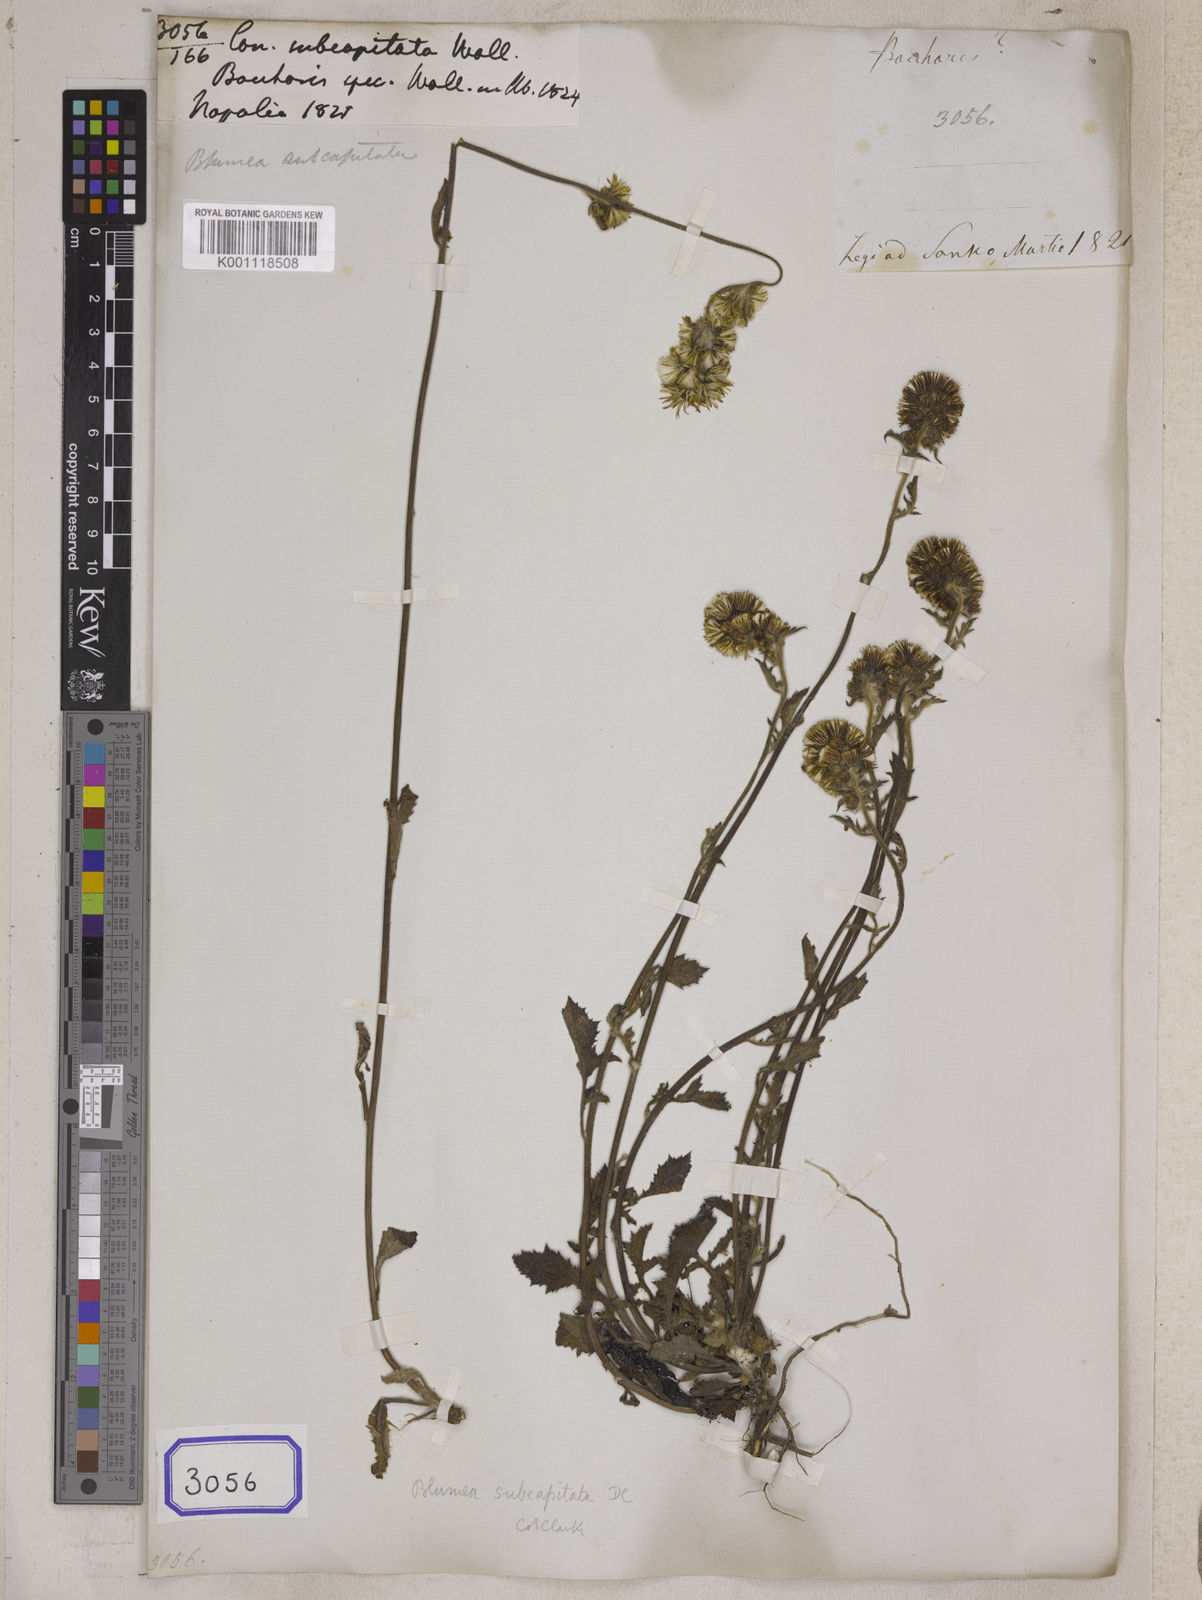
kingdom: Plantae
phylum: Tracheophyta
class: Magnoliopsida
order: Asterales
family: Asteraceae
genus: Blumea
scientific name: Blumea lacera
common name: Malay blumea
